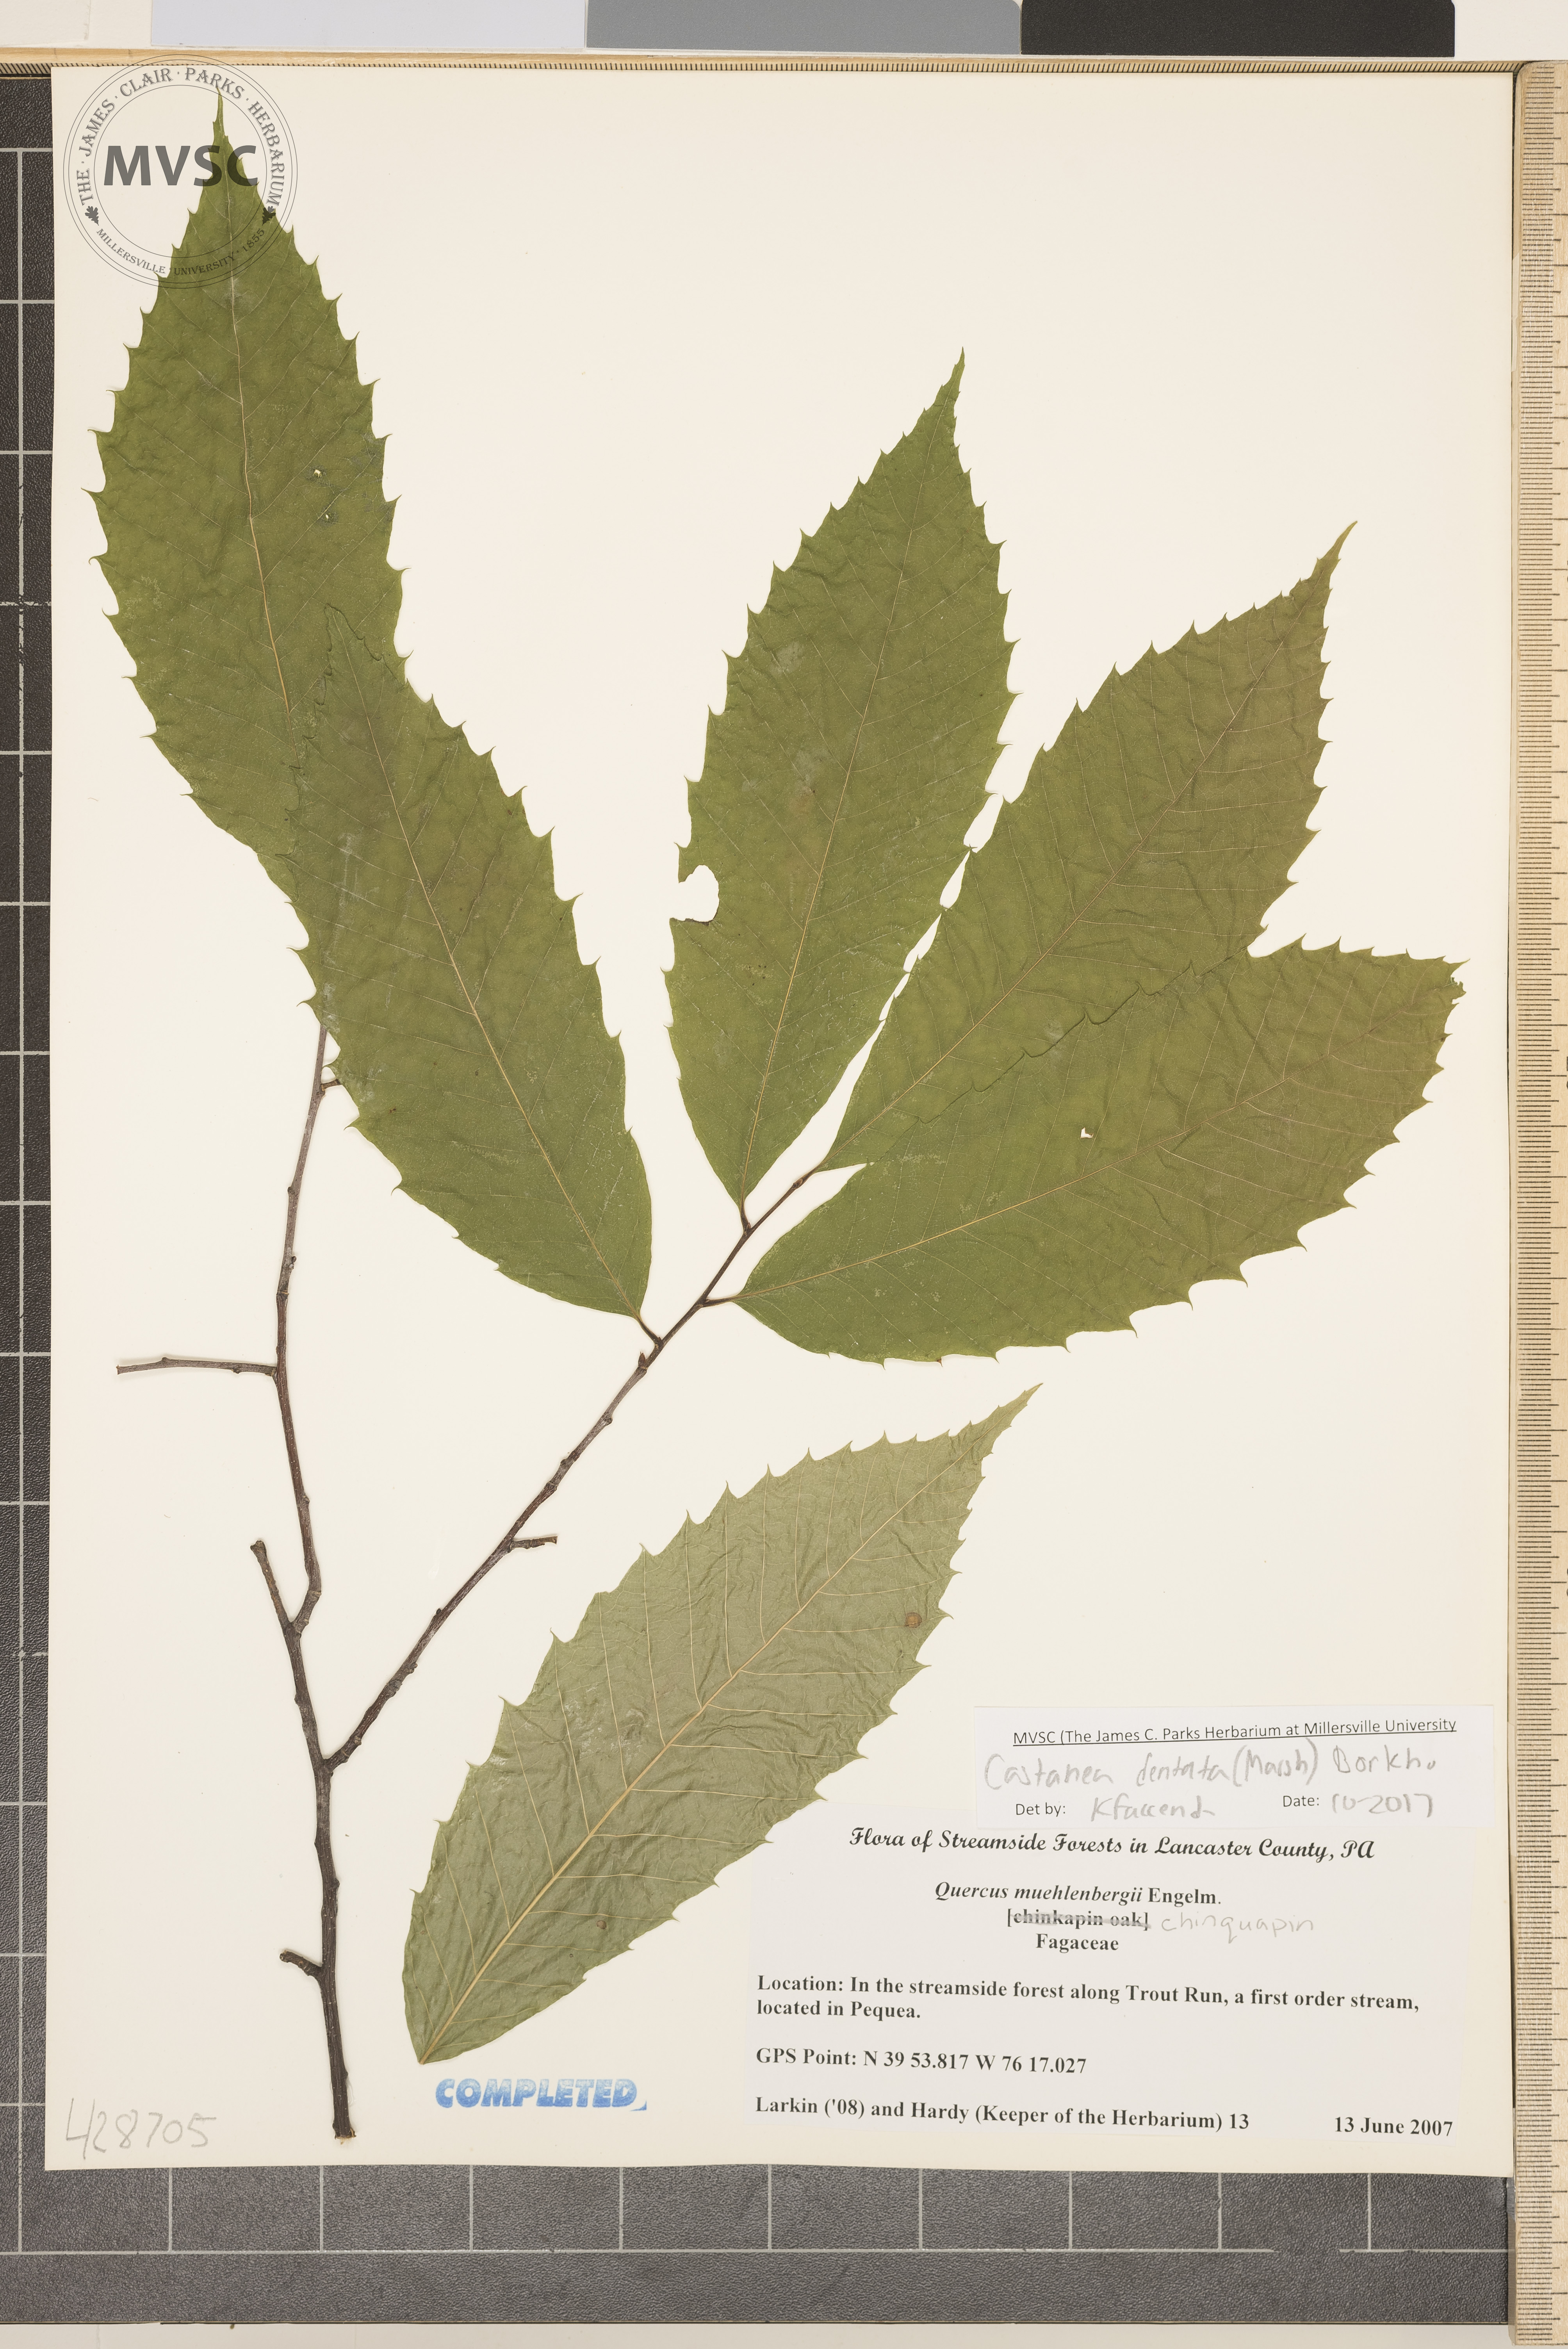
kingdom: Plantae
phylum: Tracheophyta
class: Magnoliopsida
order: Fagales
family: Fagaceae
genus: Castanea
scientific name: Castanea dentata
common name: Chestnut
